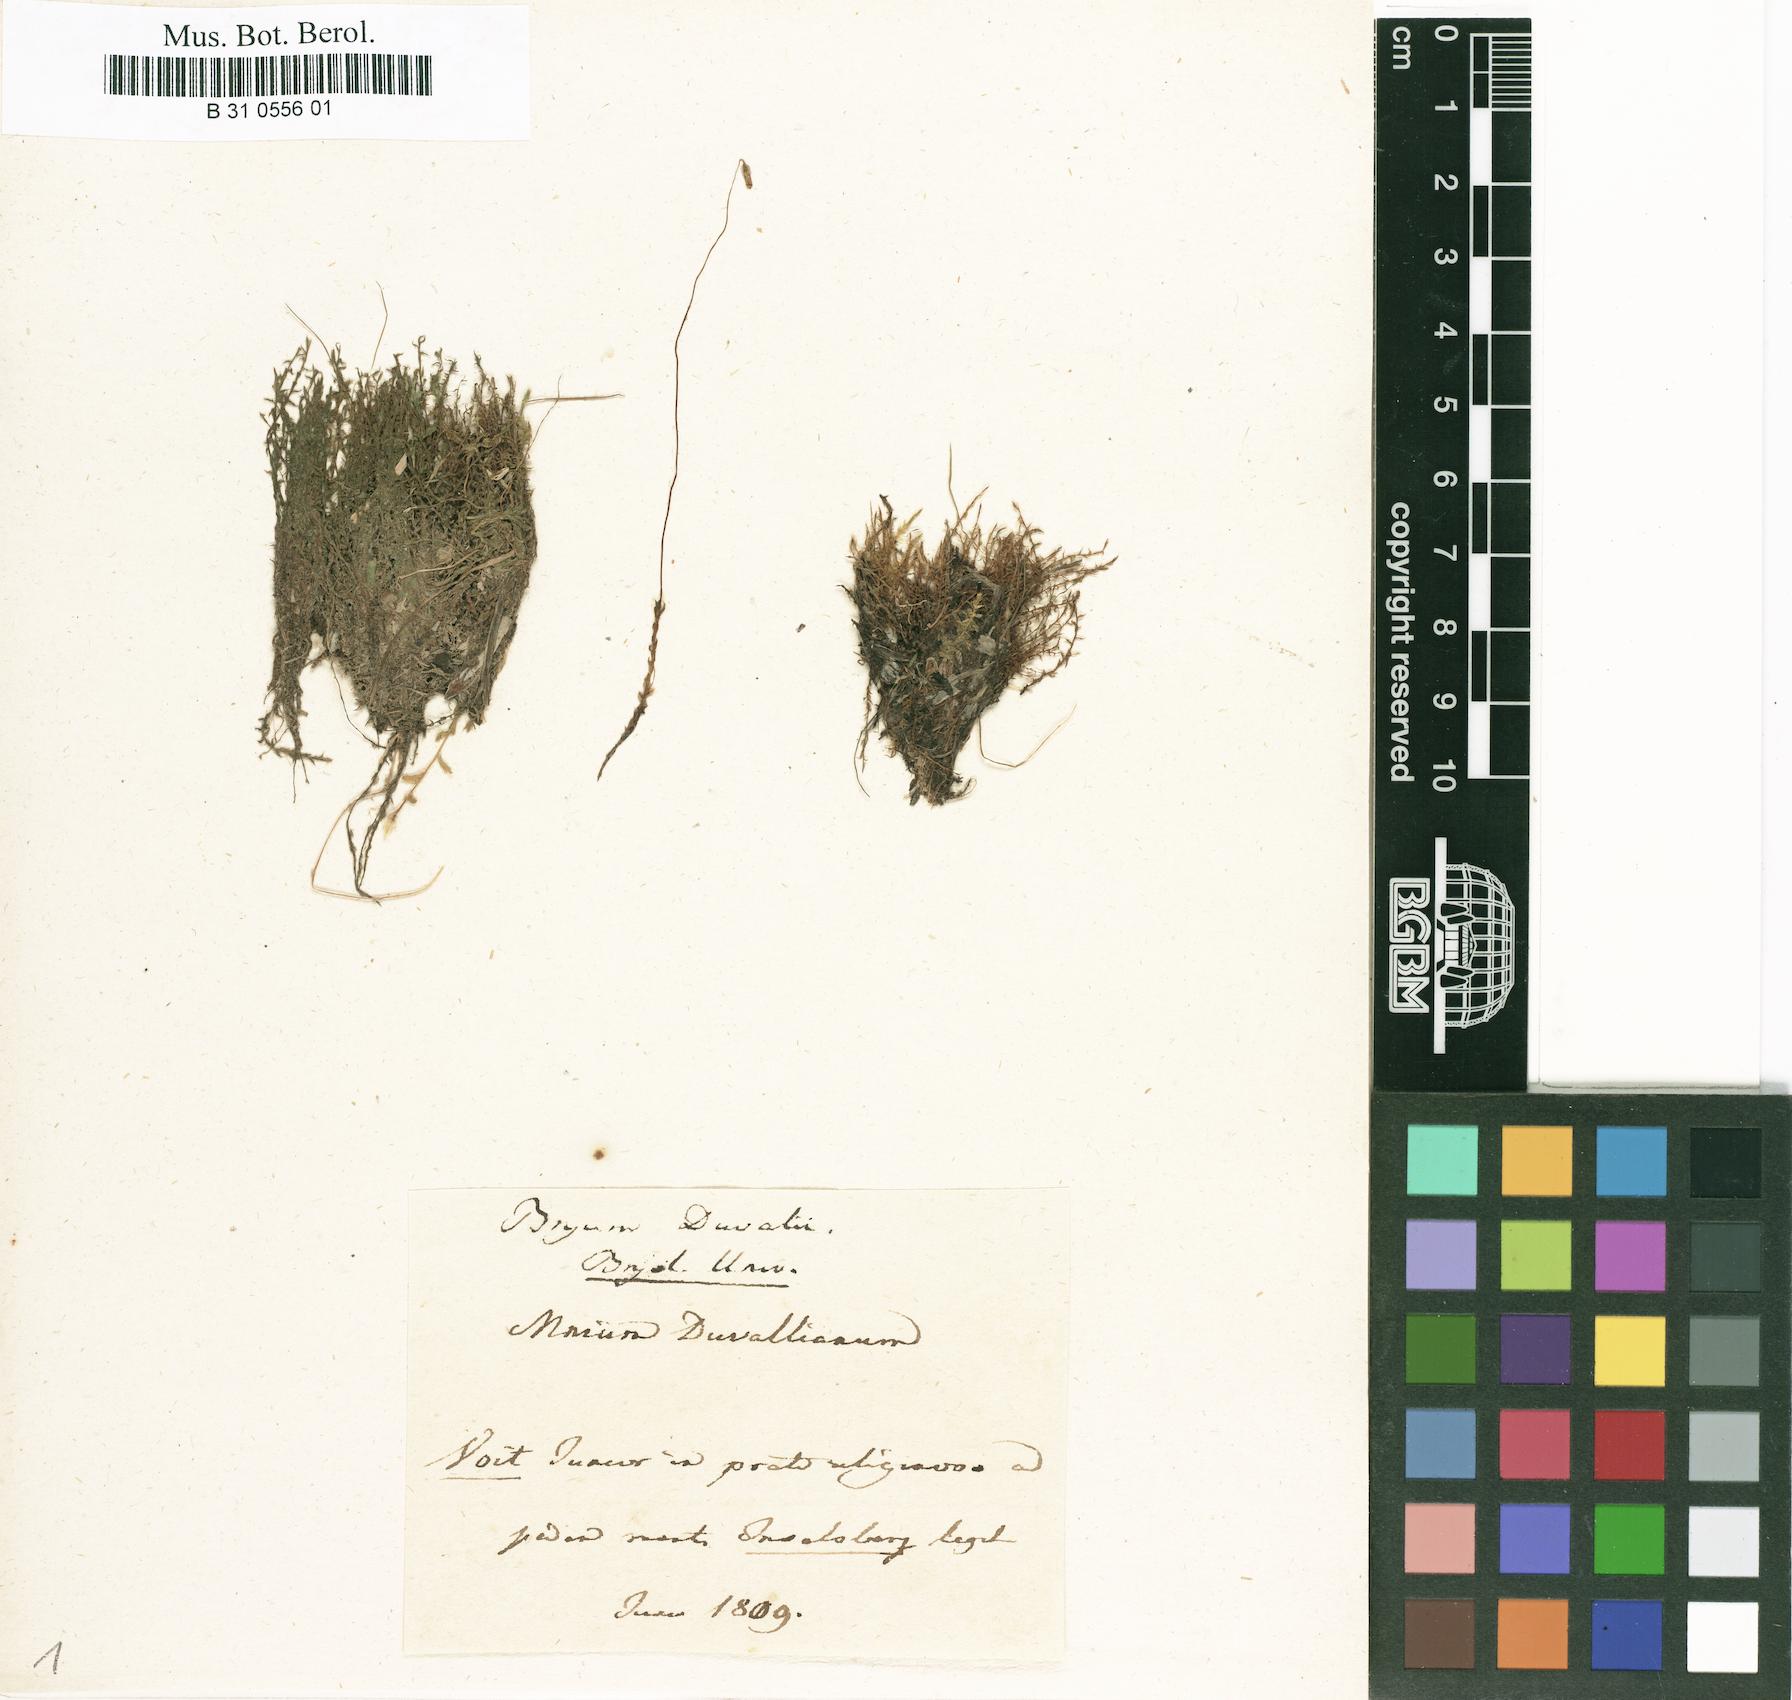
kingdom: Plantae
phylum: Bryophyta
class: Bryopsida
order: Bryales
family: Bryaceae
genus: Ptychostomum
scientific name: Ptychostomum weigelii
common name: Weigel's bryum moss
